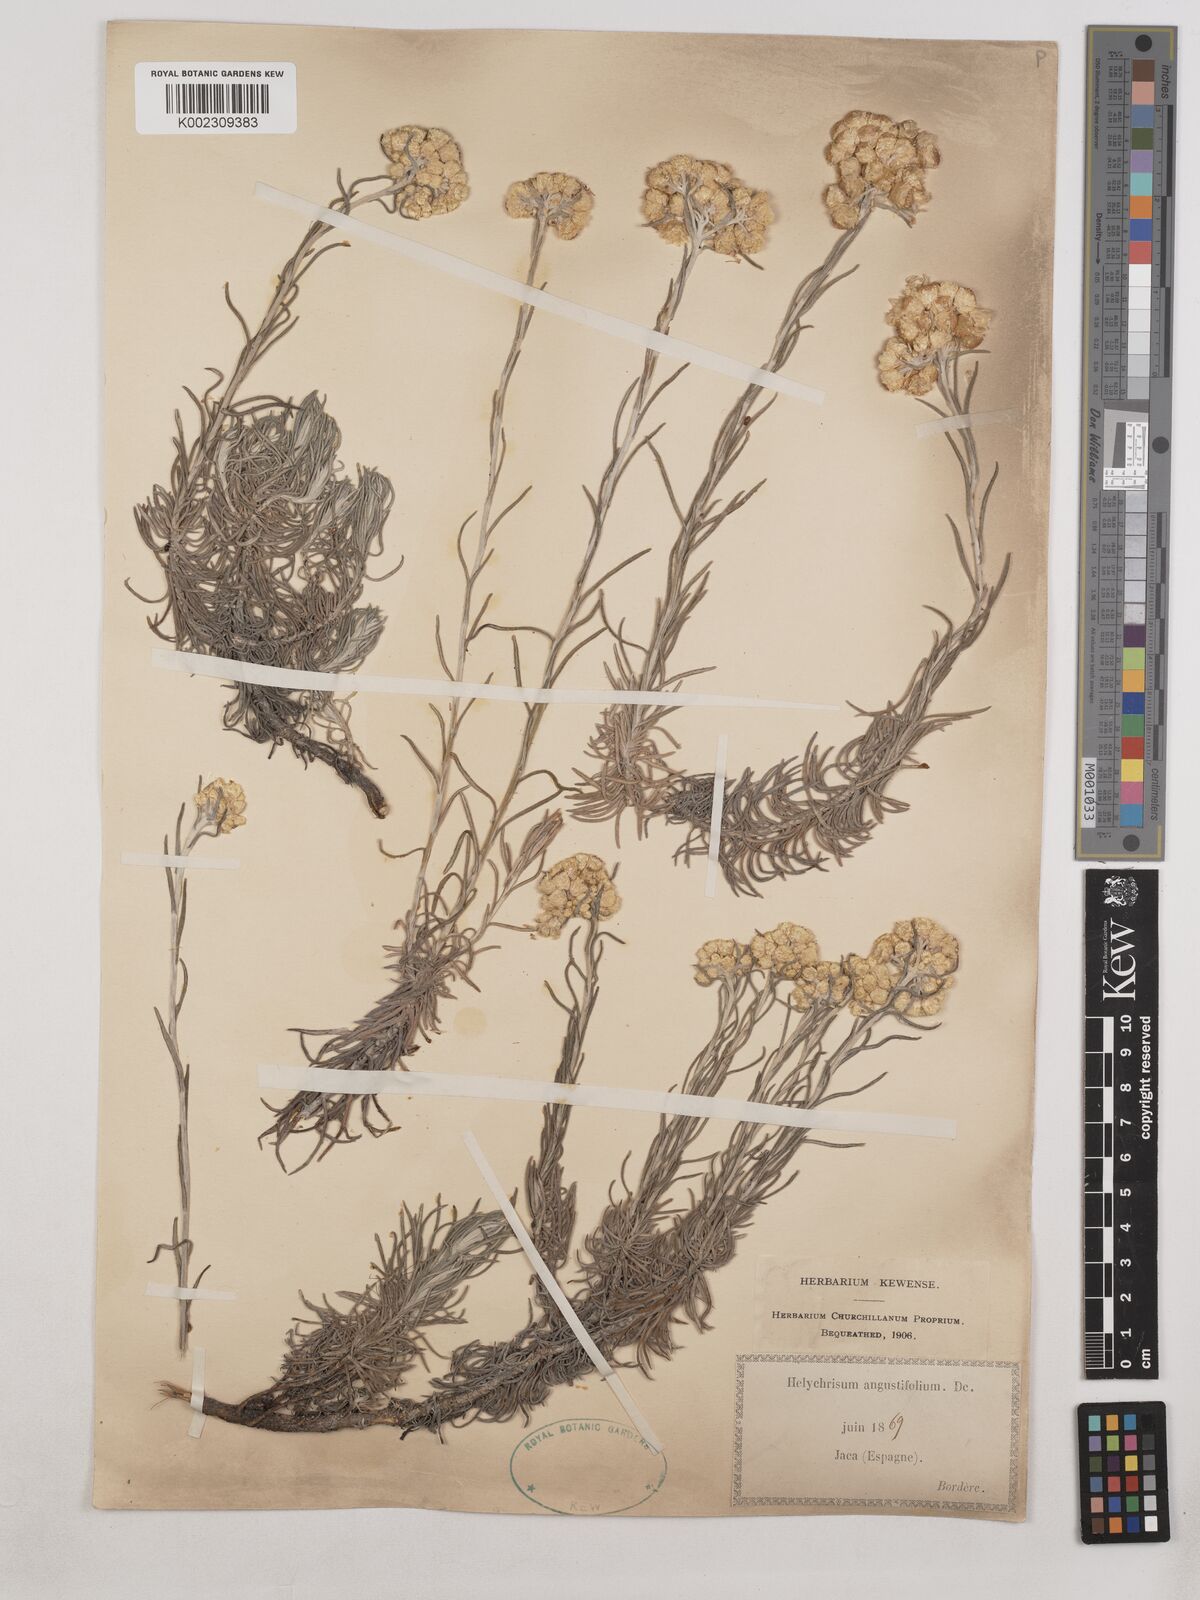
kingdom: Plantae
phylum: Tracheophyta
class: Magnoliopsida
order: Asterales
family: Asteraceae
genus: Helichrysum
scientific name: Helichrysum
